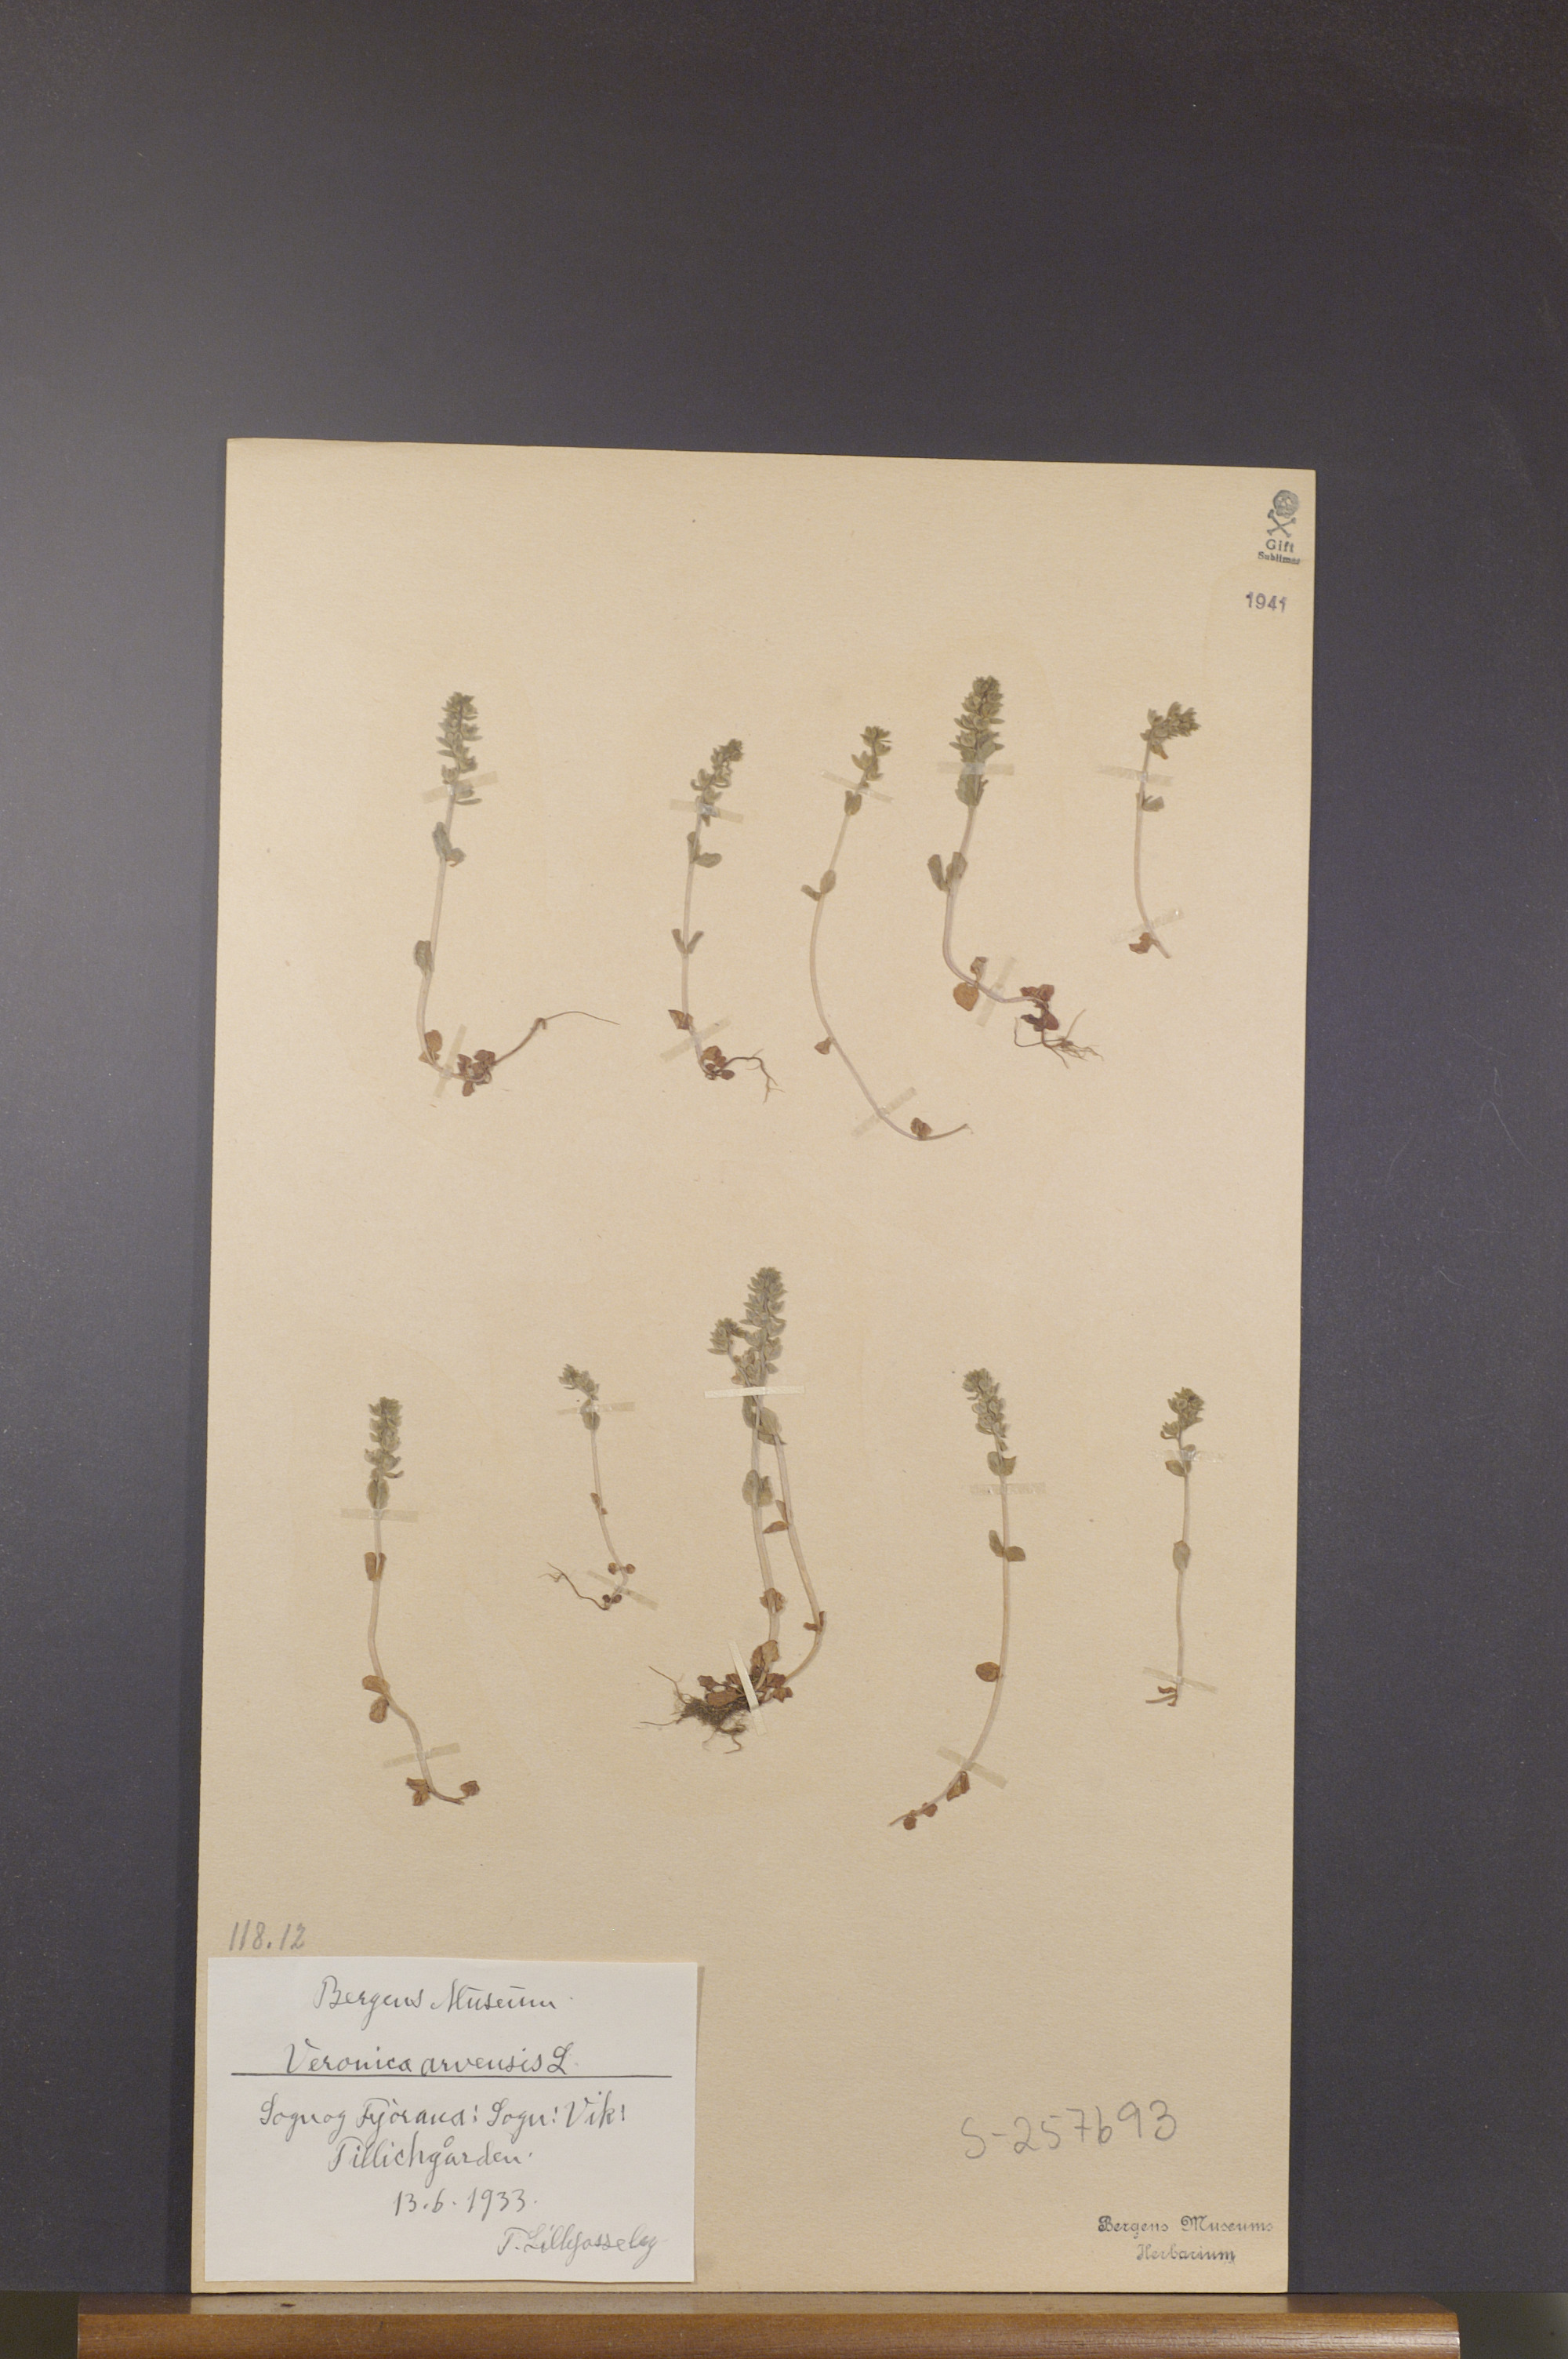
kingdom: Plantae
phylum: Tracheophyta
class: Magnoliopsida
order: Lamiales
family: Plantaginaceae
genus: Veronica
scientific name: Veronica arvensis
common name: Corn speedwell
